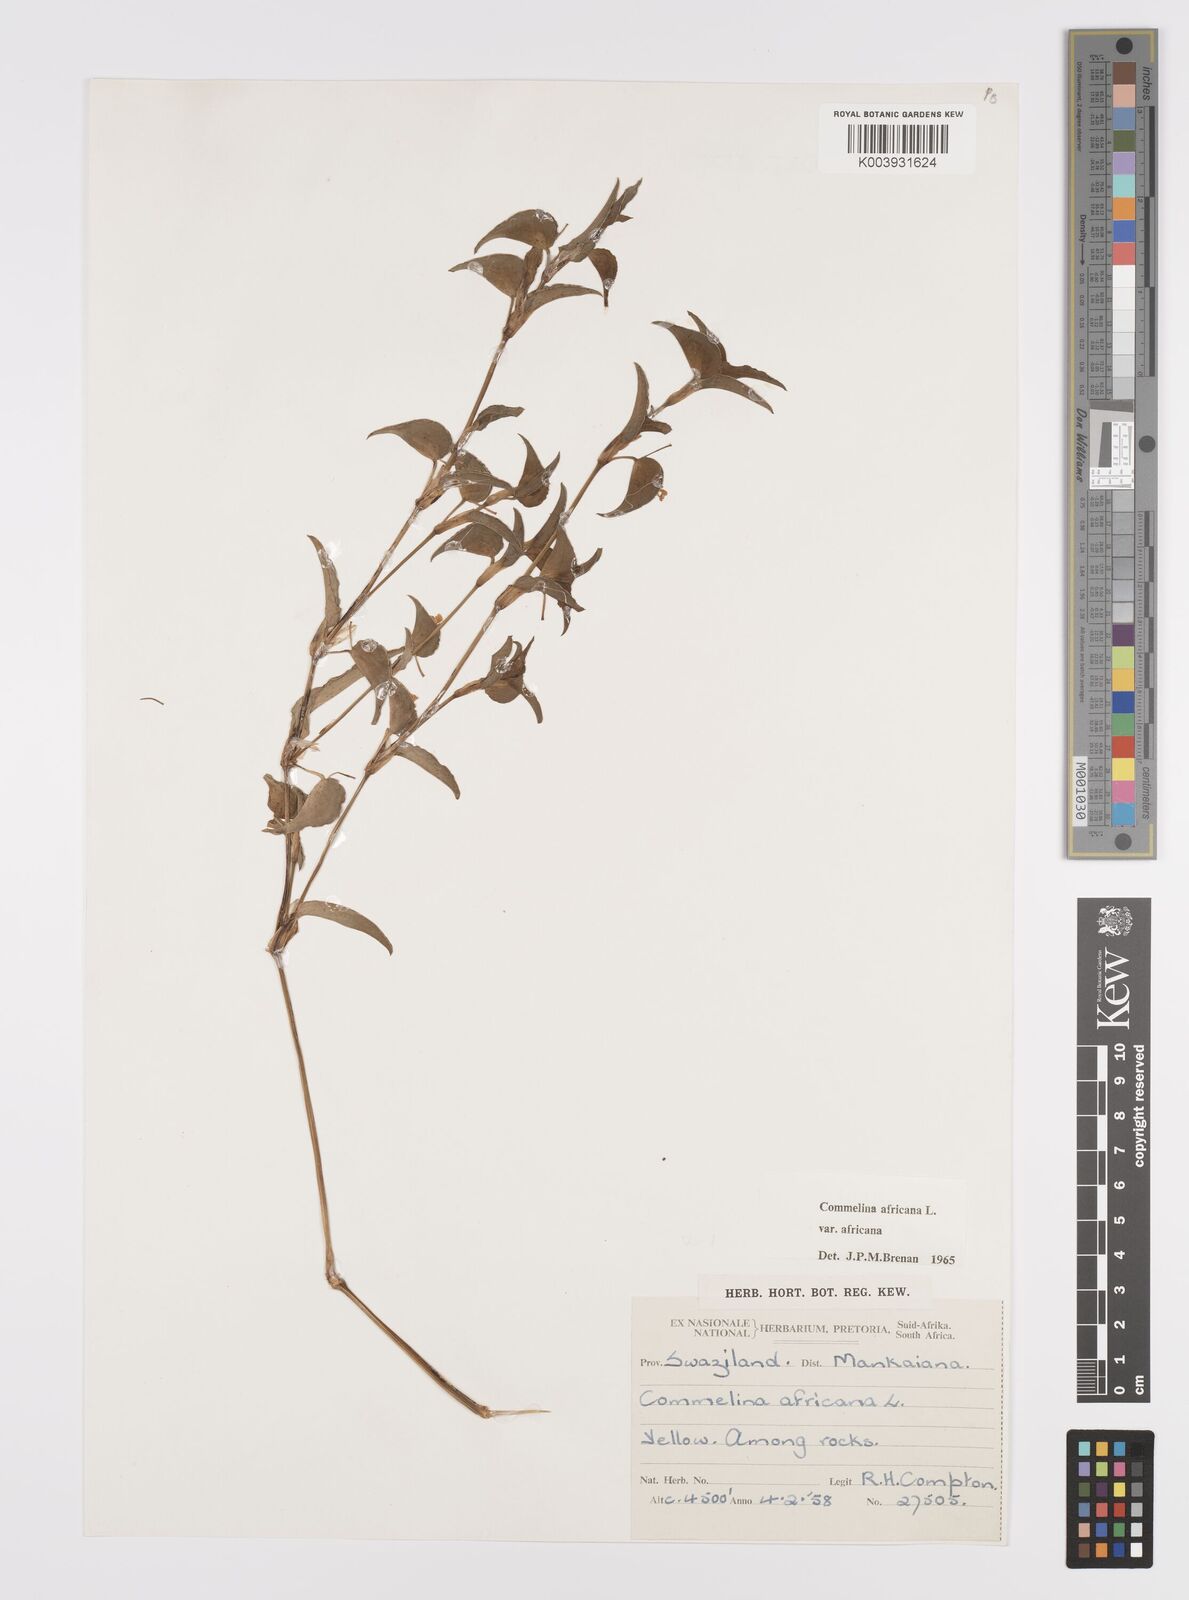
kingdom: Plantae
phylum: Tracheophyta
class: Liliopsida
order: Commelinales
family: Commelinaceae
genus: Commelina
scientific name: Commelina africana
